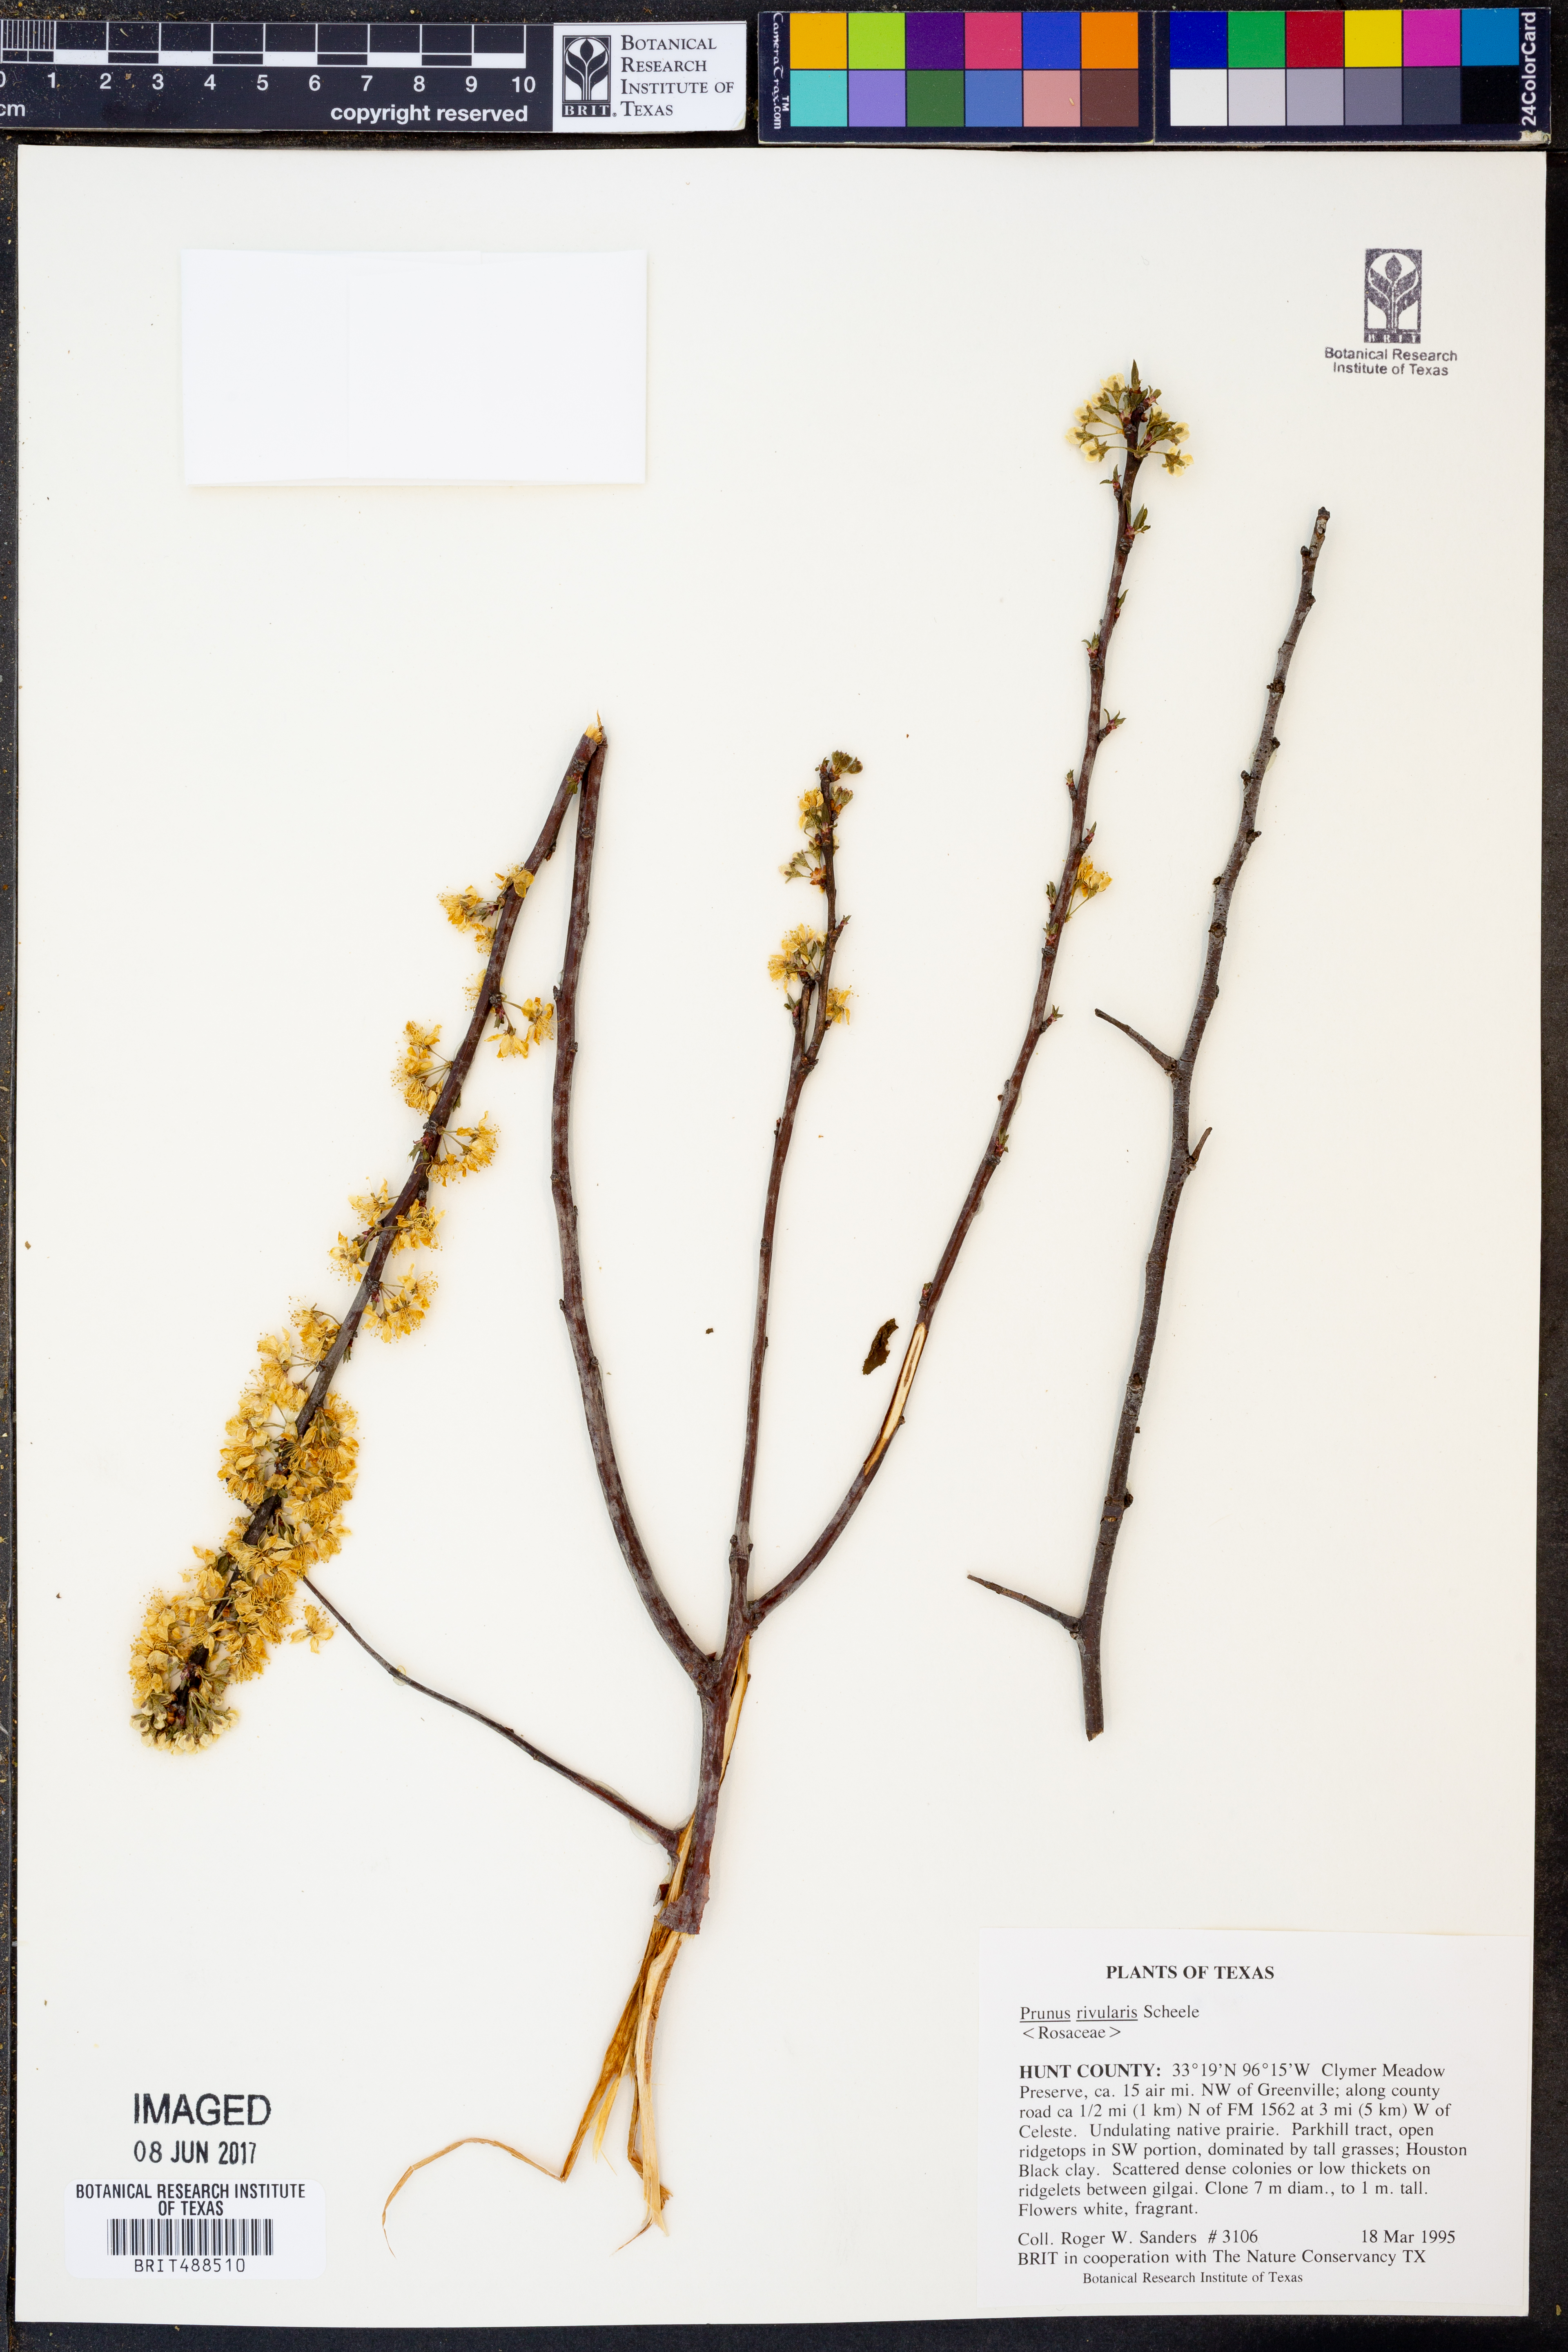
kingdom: Plantae
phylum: Tracheophyta
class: Magnoliopsida
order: Rosales
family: Rosaceae
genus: Prunus
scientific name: Prunus rivularis
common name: Creek plum
